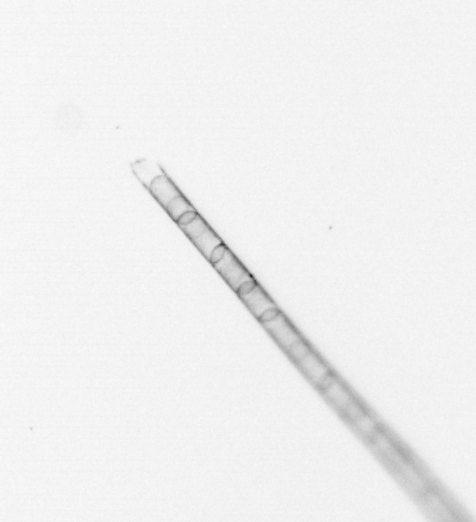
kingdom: Chromista
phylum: Ochrophyta
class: Bacillariophyceae
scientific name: Bacillariophyceae
